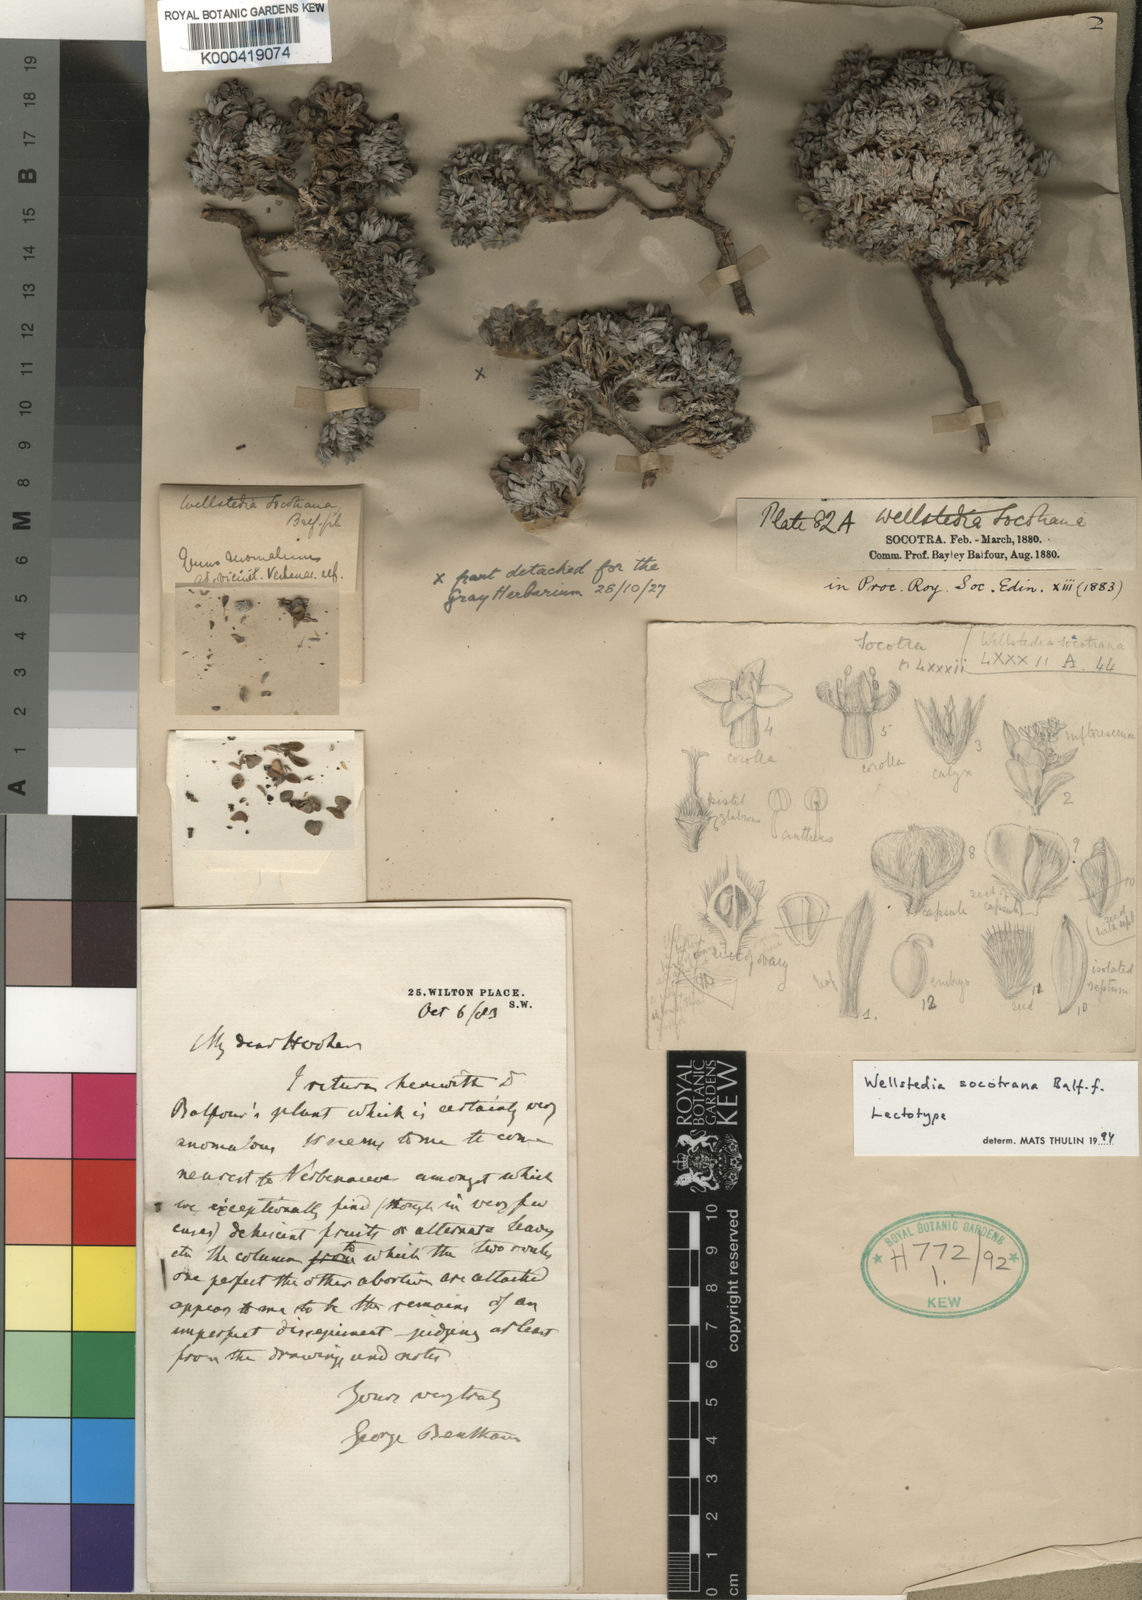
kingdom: Plantae
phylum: Tracheophyta
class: Magnoliopsida
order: Boraginales
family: Wellstediaceae
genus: Wellstedia
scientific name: Wellstedia socotrana
